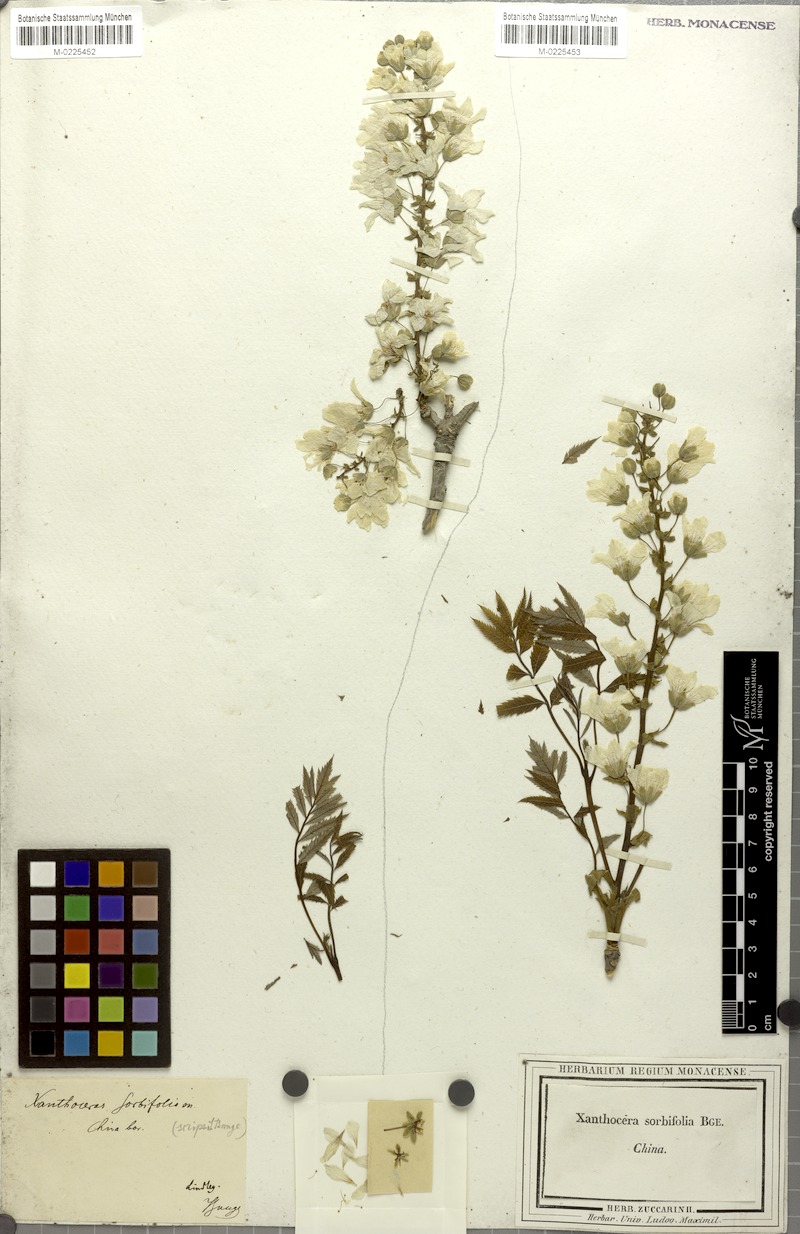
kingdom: Plantae
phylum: Tracheophyta
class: Magnoliopsida
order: Sapindales
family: Sapindaceae
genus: Xanthoceras
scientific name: Xanthoceras sorbifolia
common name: Yellow-horn
